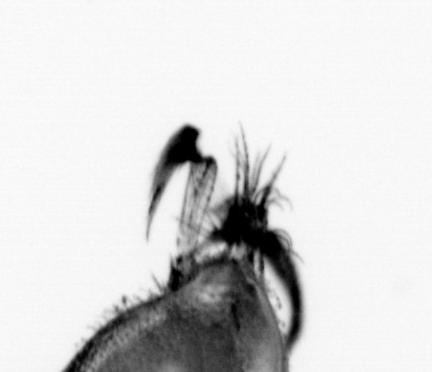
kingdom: Animalia
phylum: Chordata
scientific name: Chordata
